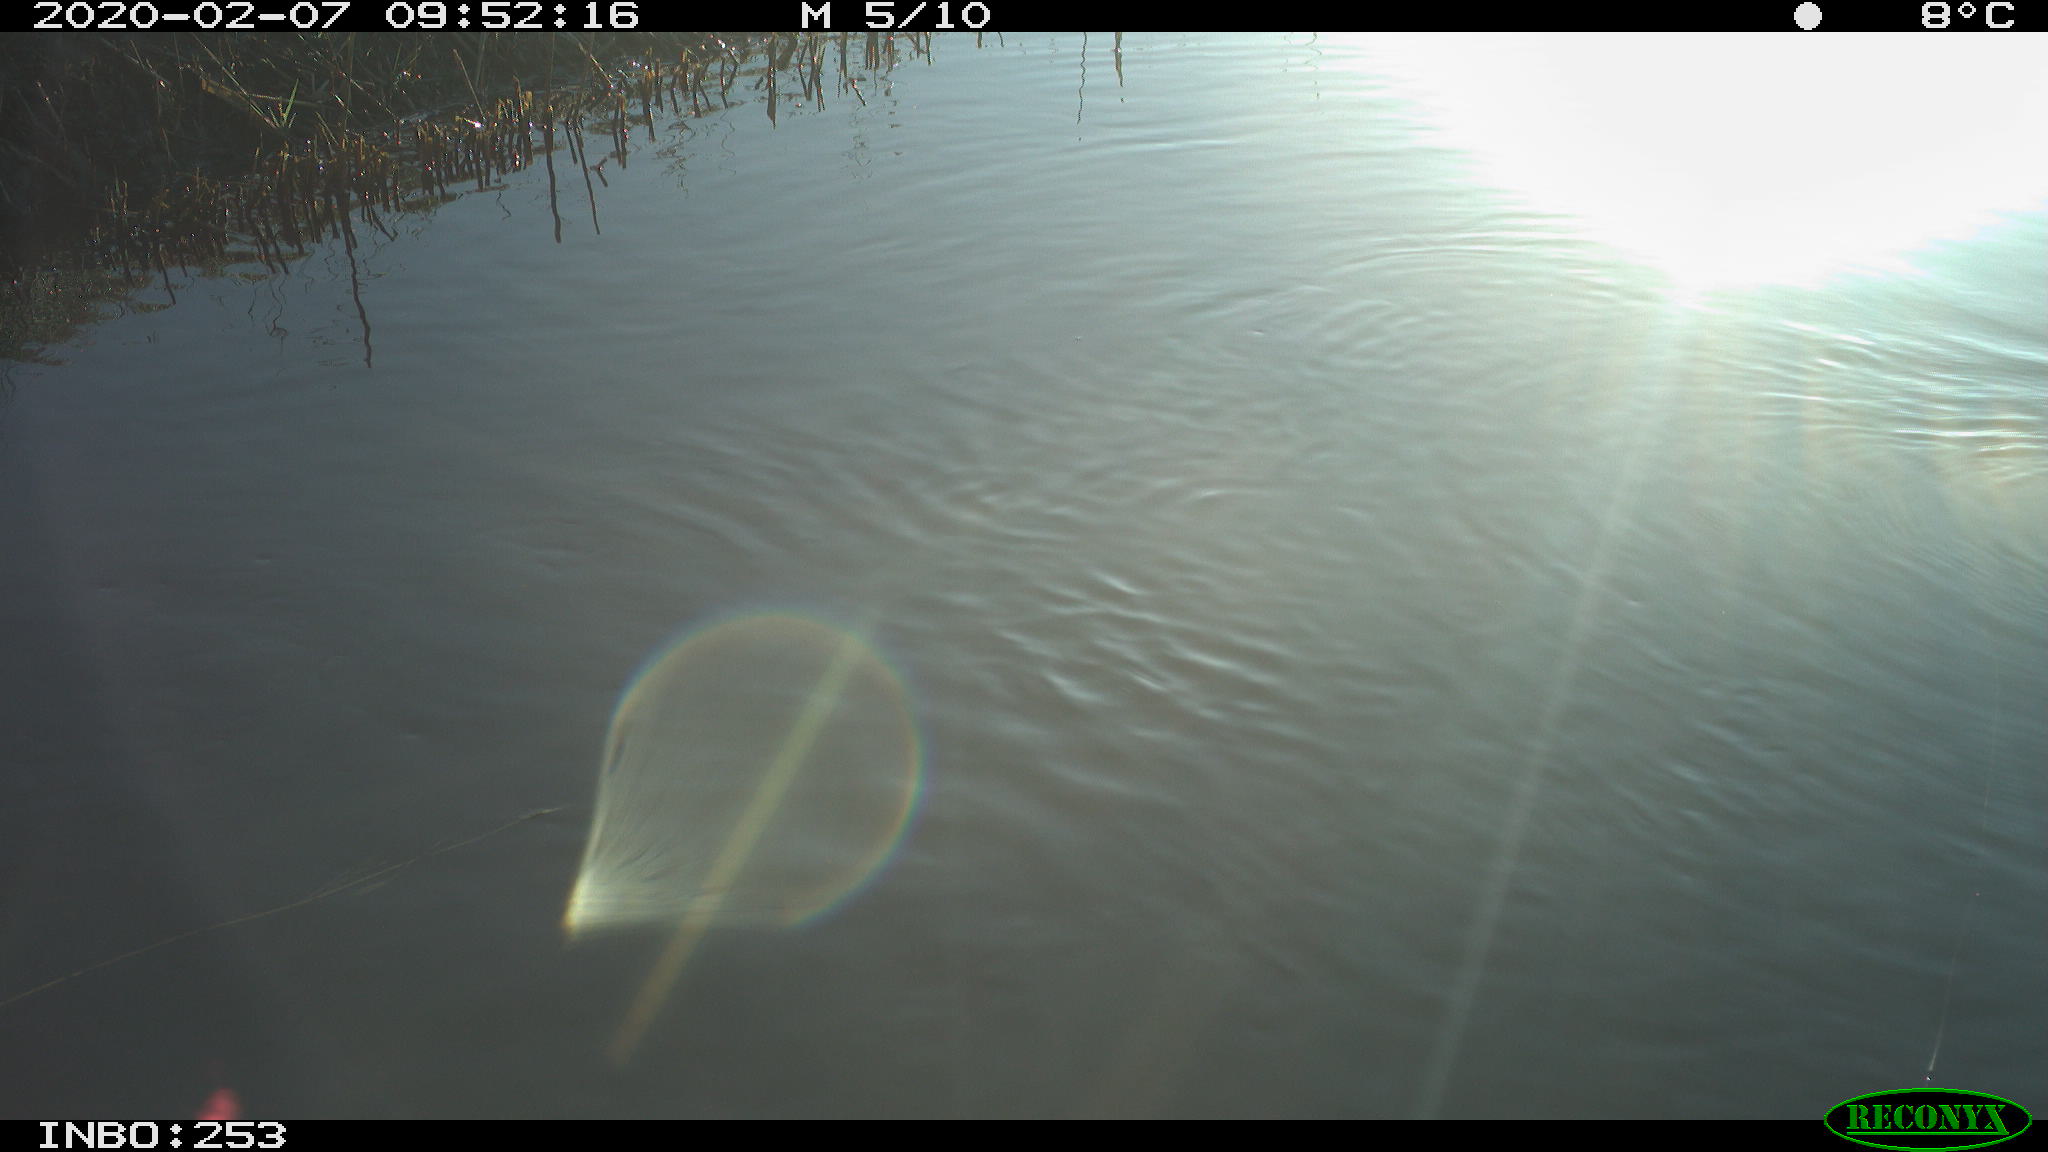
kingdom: Animalia
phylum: Chordata
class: Aves
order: Gruiformes
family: Rallidae
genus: Gallinula
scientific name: Gallinula chloropus
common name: Common moorhen
